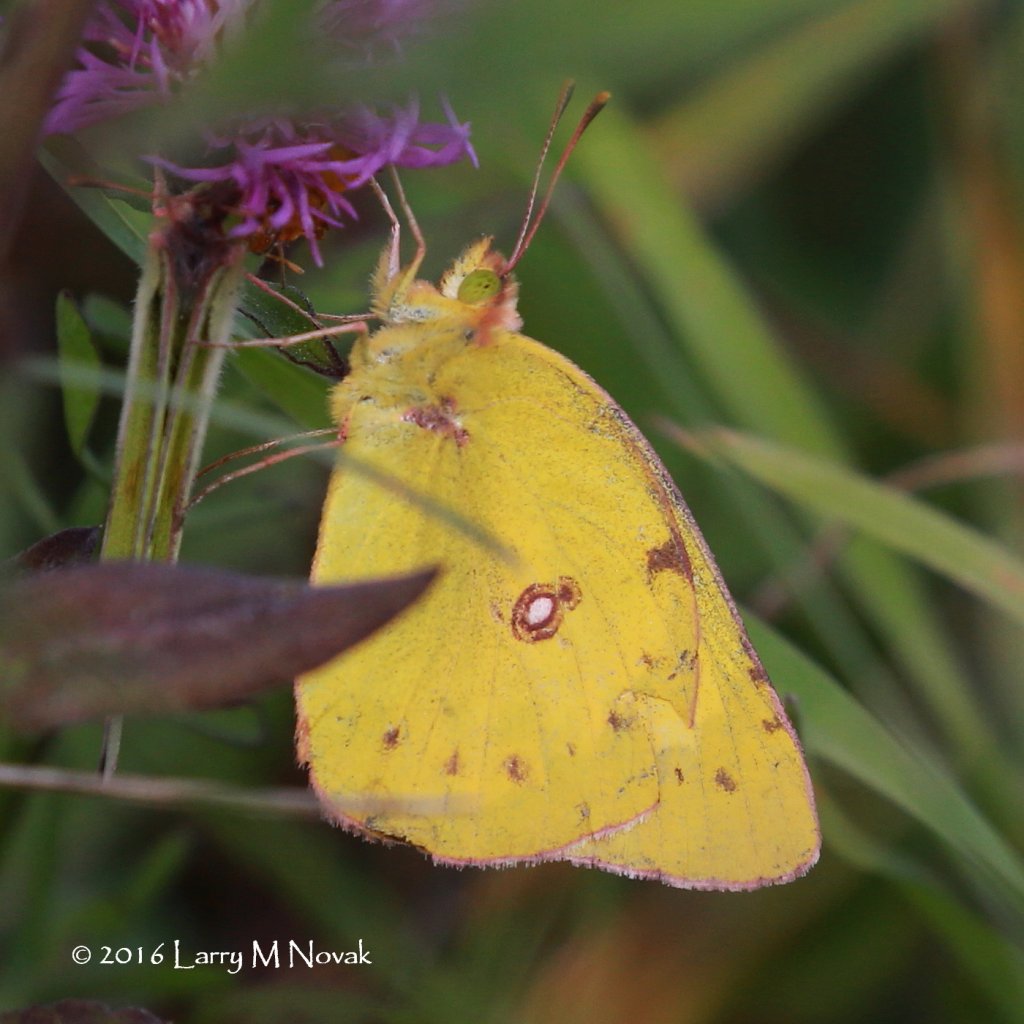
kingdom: Animalia
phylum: Arthropoda
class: Insecta
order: Lepidoptera
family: Pieridae
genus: Colias
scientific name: Colias eurytheme
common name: Orange Sulphur
